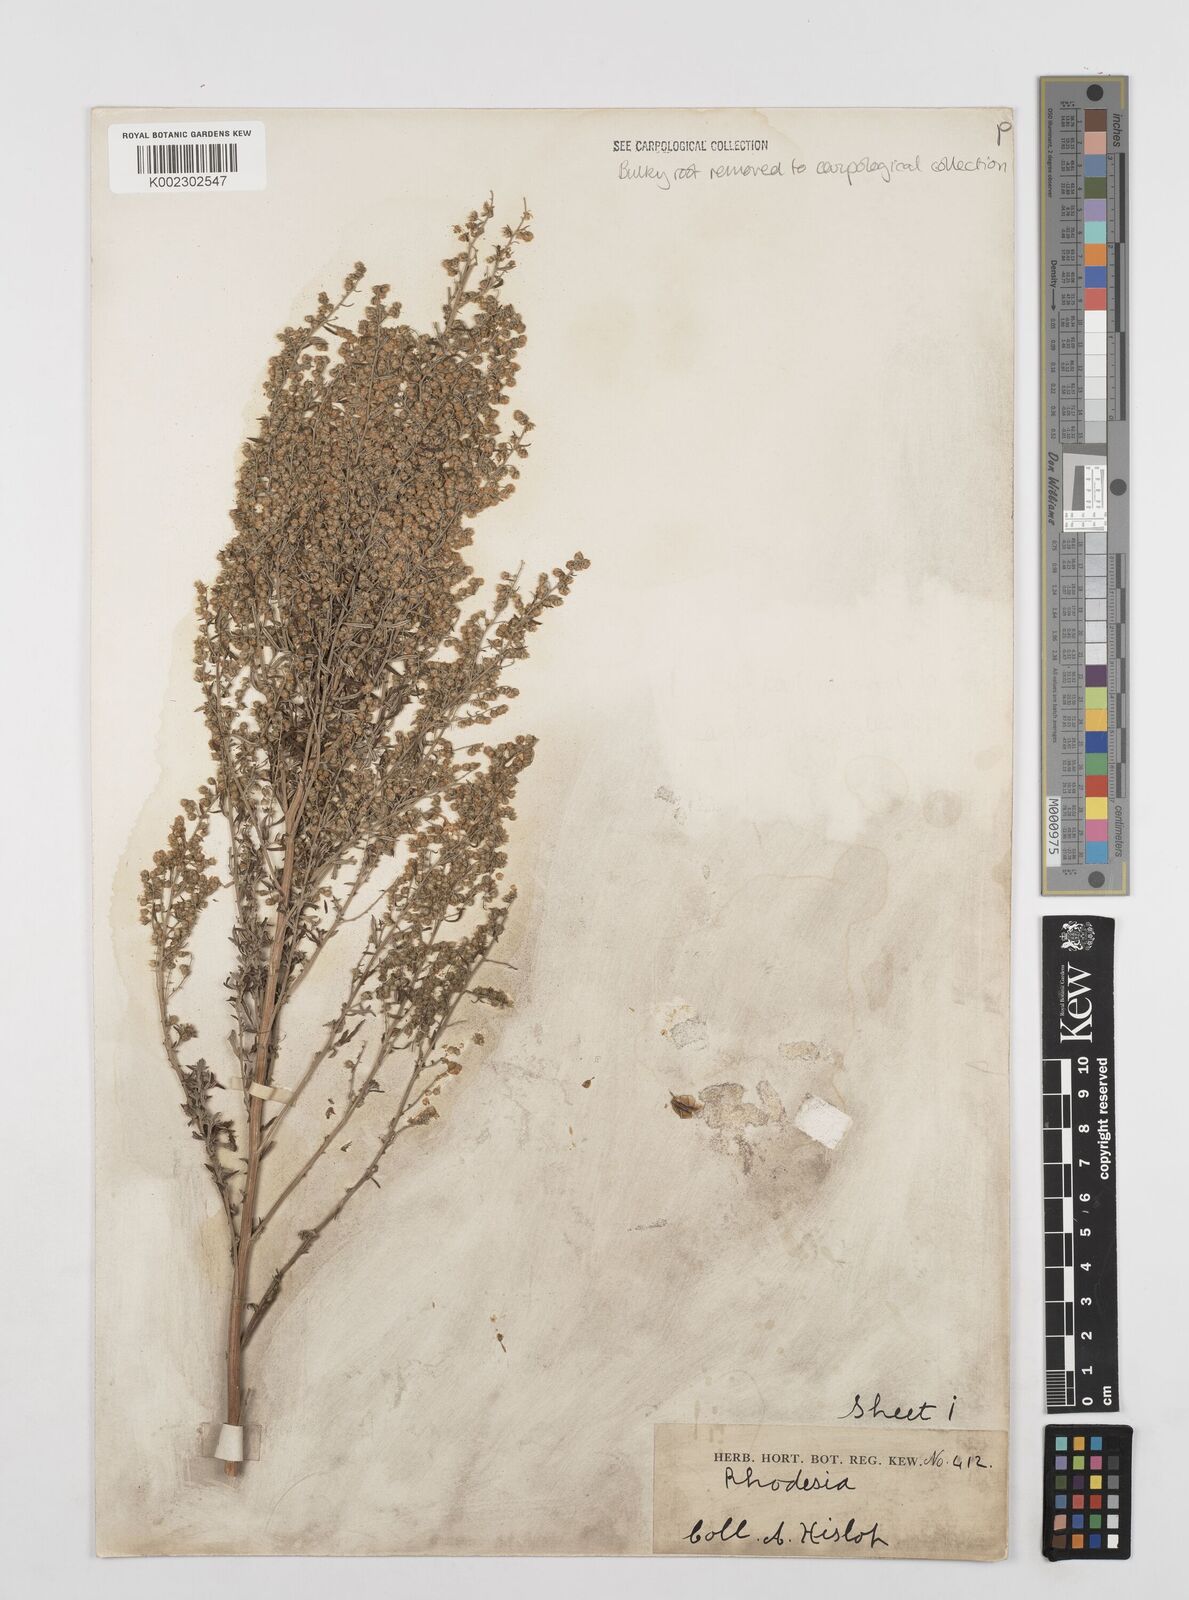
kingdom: Plantae
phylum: Tracheophyta
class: Magnoliopsida
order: Asterales
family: Asteraceae
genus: Artemisia
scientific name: Artemisia afra
